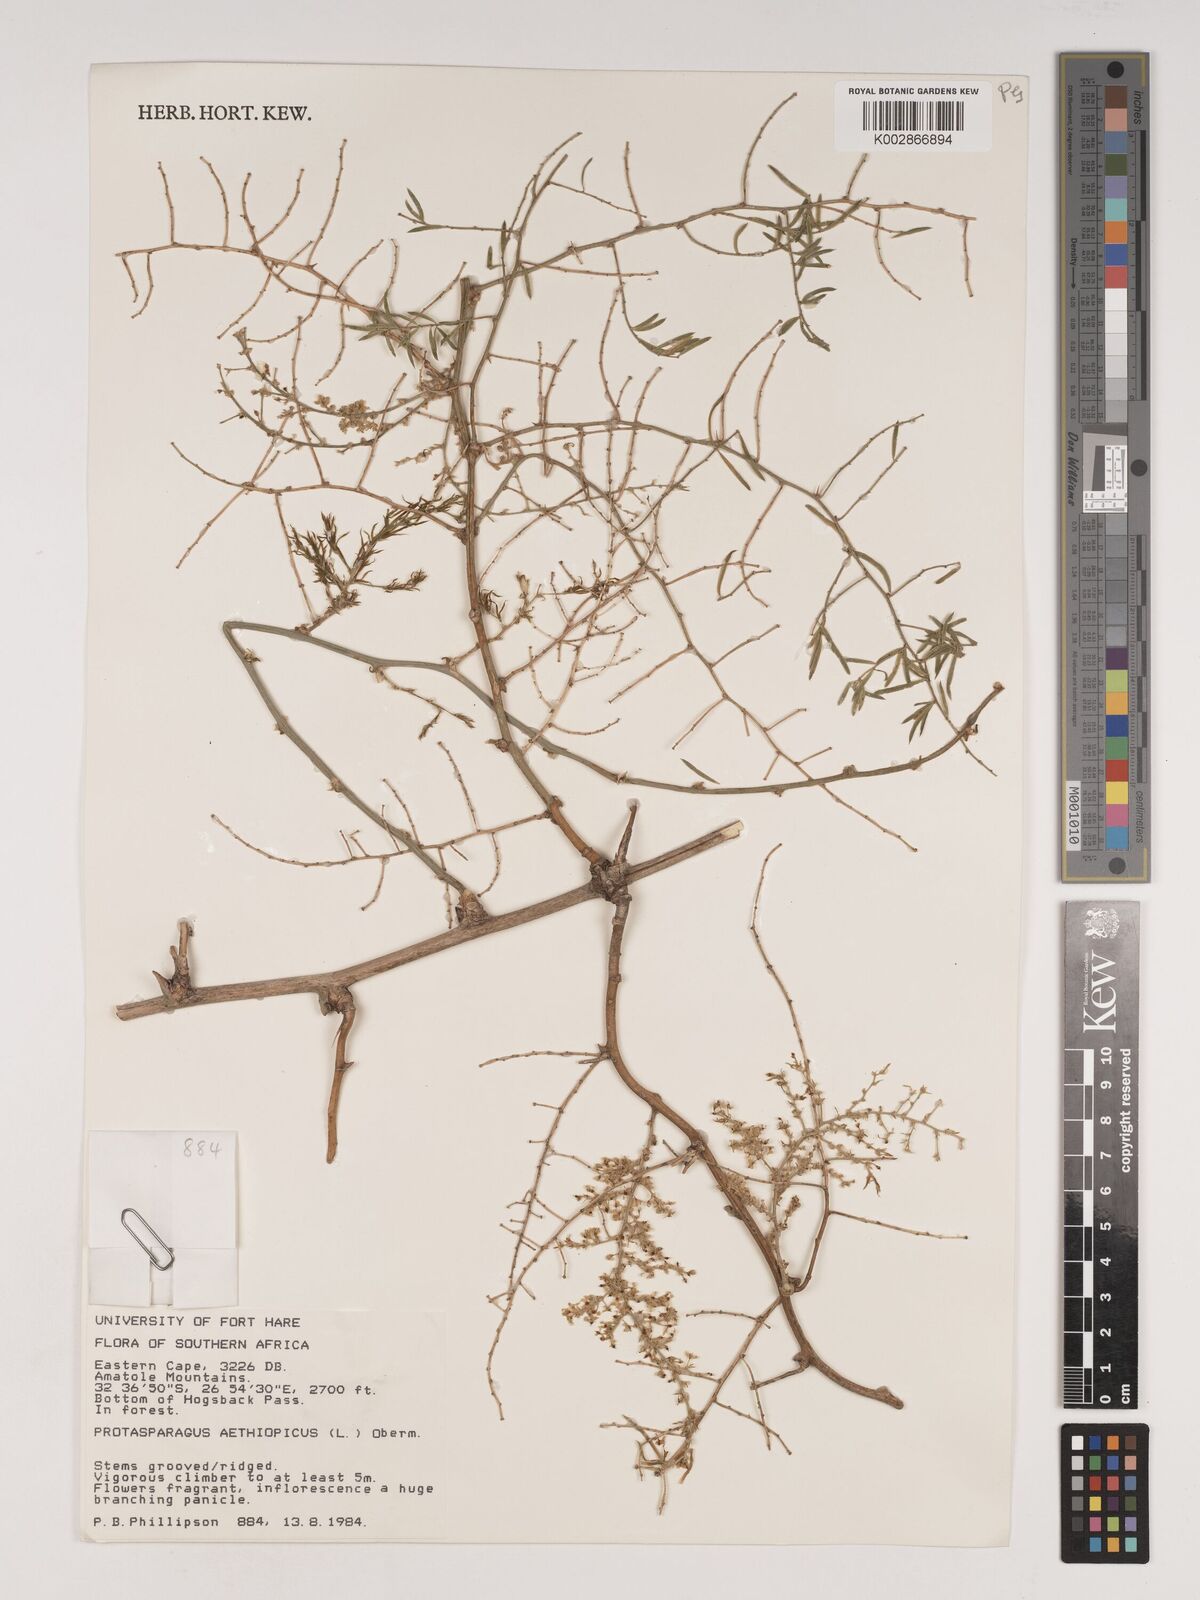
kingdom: Plantae
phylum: Tracheophyta
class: Liliopsida
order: Asparagales
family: Asparagaceae
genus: Asparagus
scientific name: Asparagus aethiopicus
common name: Sprenger's asparagus fern
